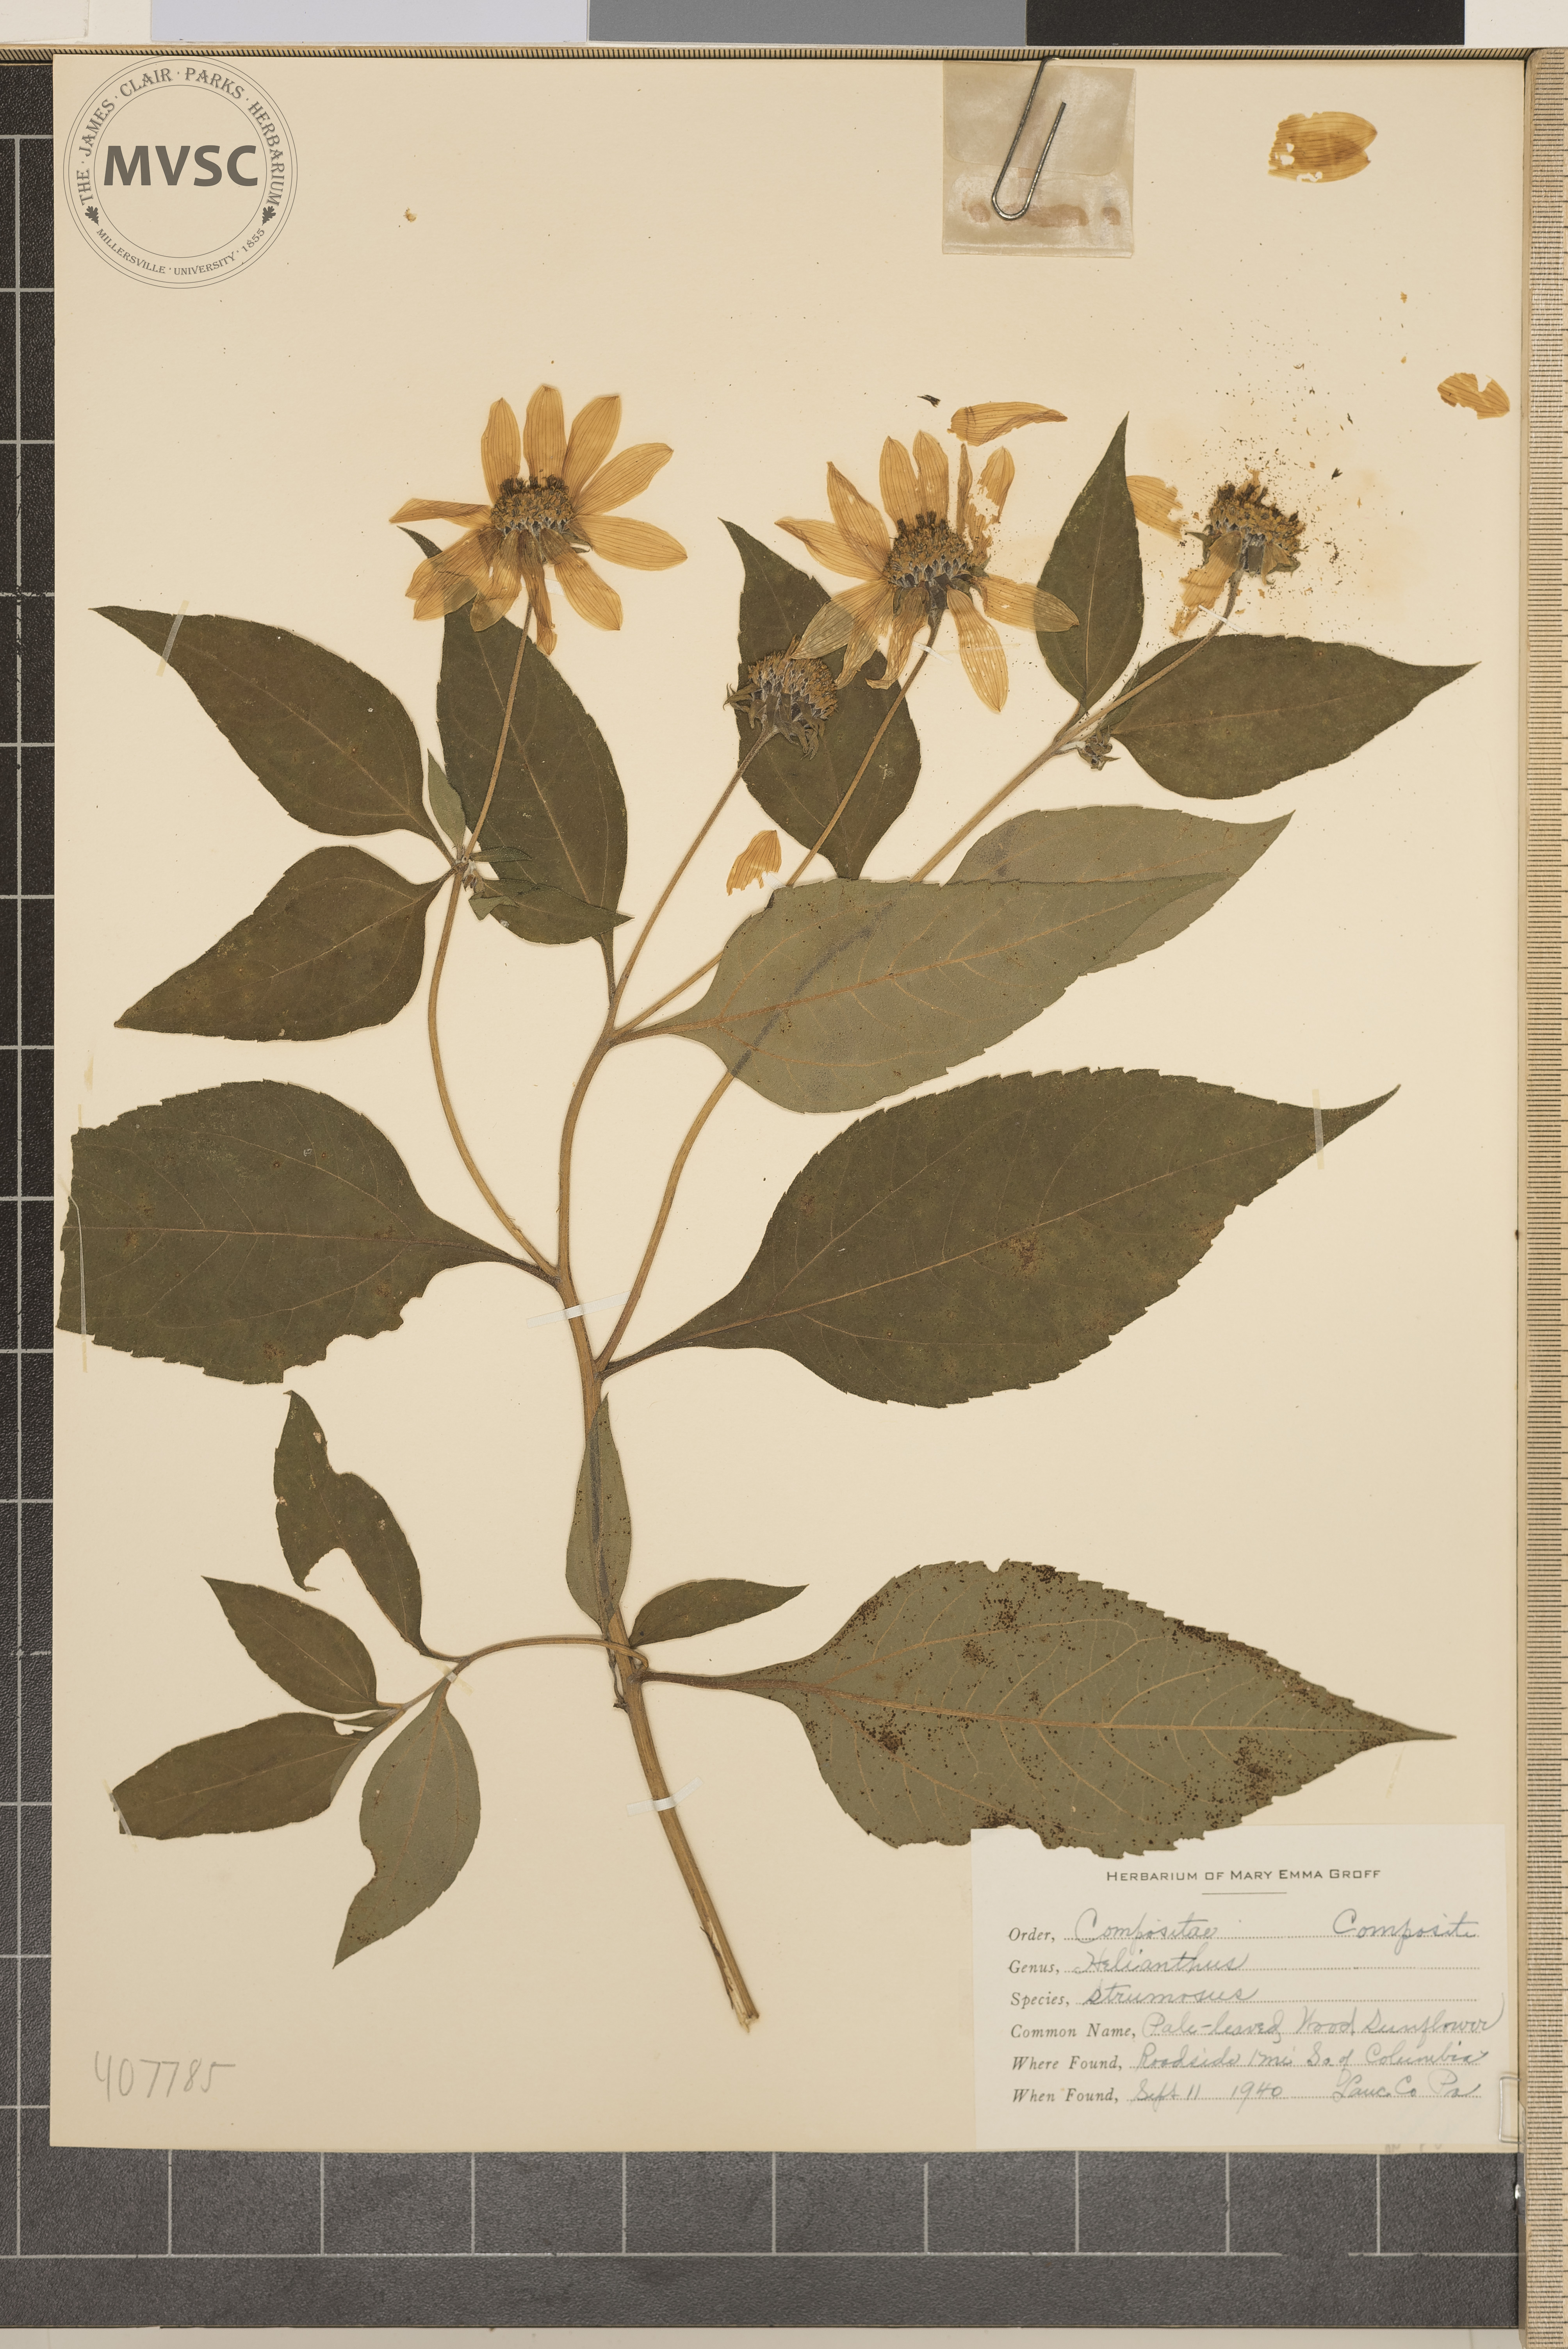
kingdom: Plantae
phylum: Tracheophyta
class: Magnoliopsida
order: Asterales
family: Asteraceae
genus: Helianthus
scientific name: Helianthus strumosus
